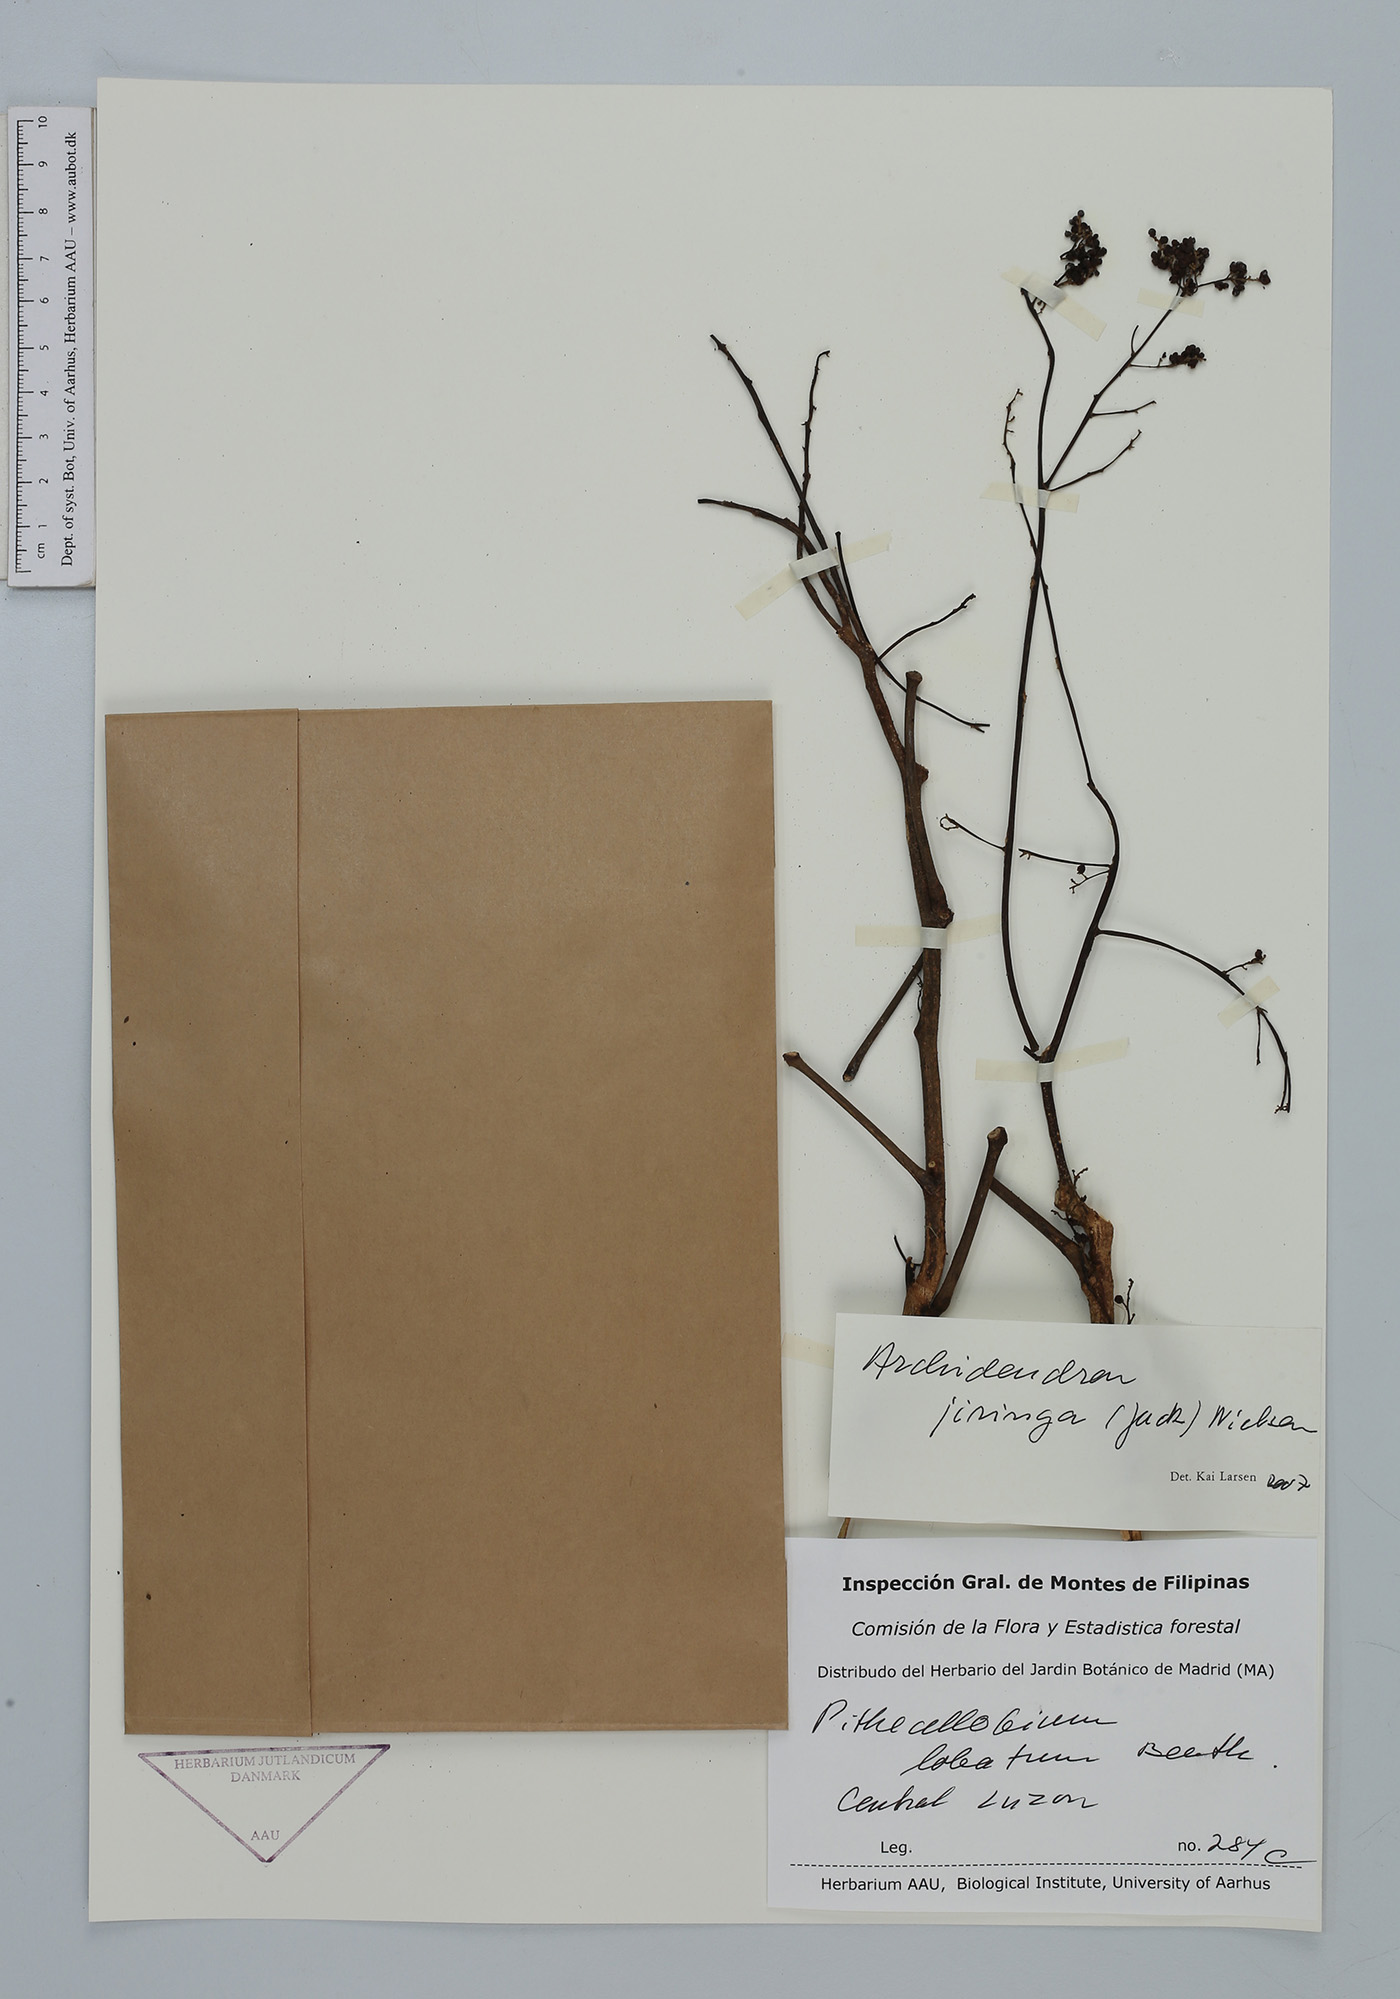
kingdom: Plantae
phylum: Tracheophyta
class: Magnoliopsida
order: Fabales
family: Fabaceae
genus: Archidendron
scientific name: Archidendron jiringa
